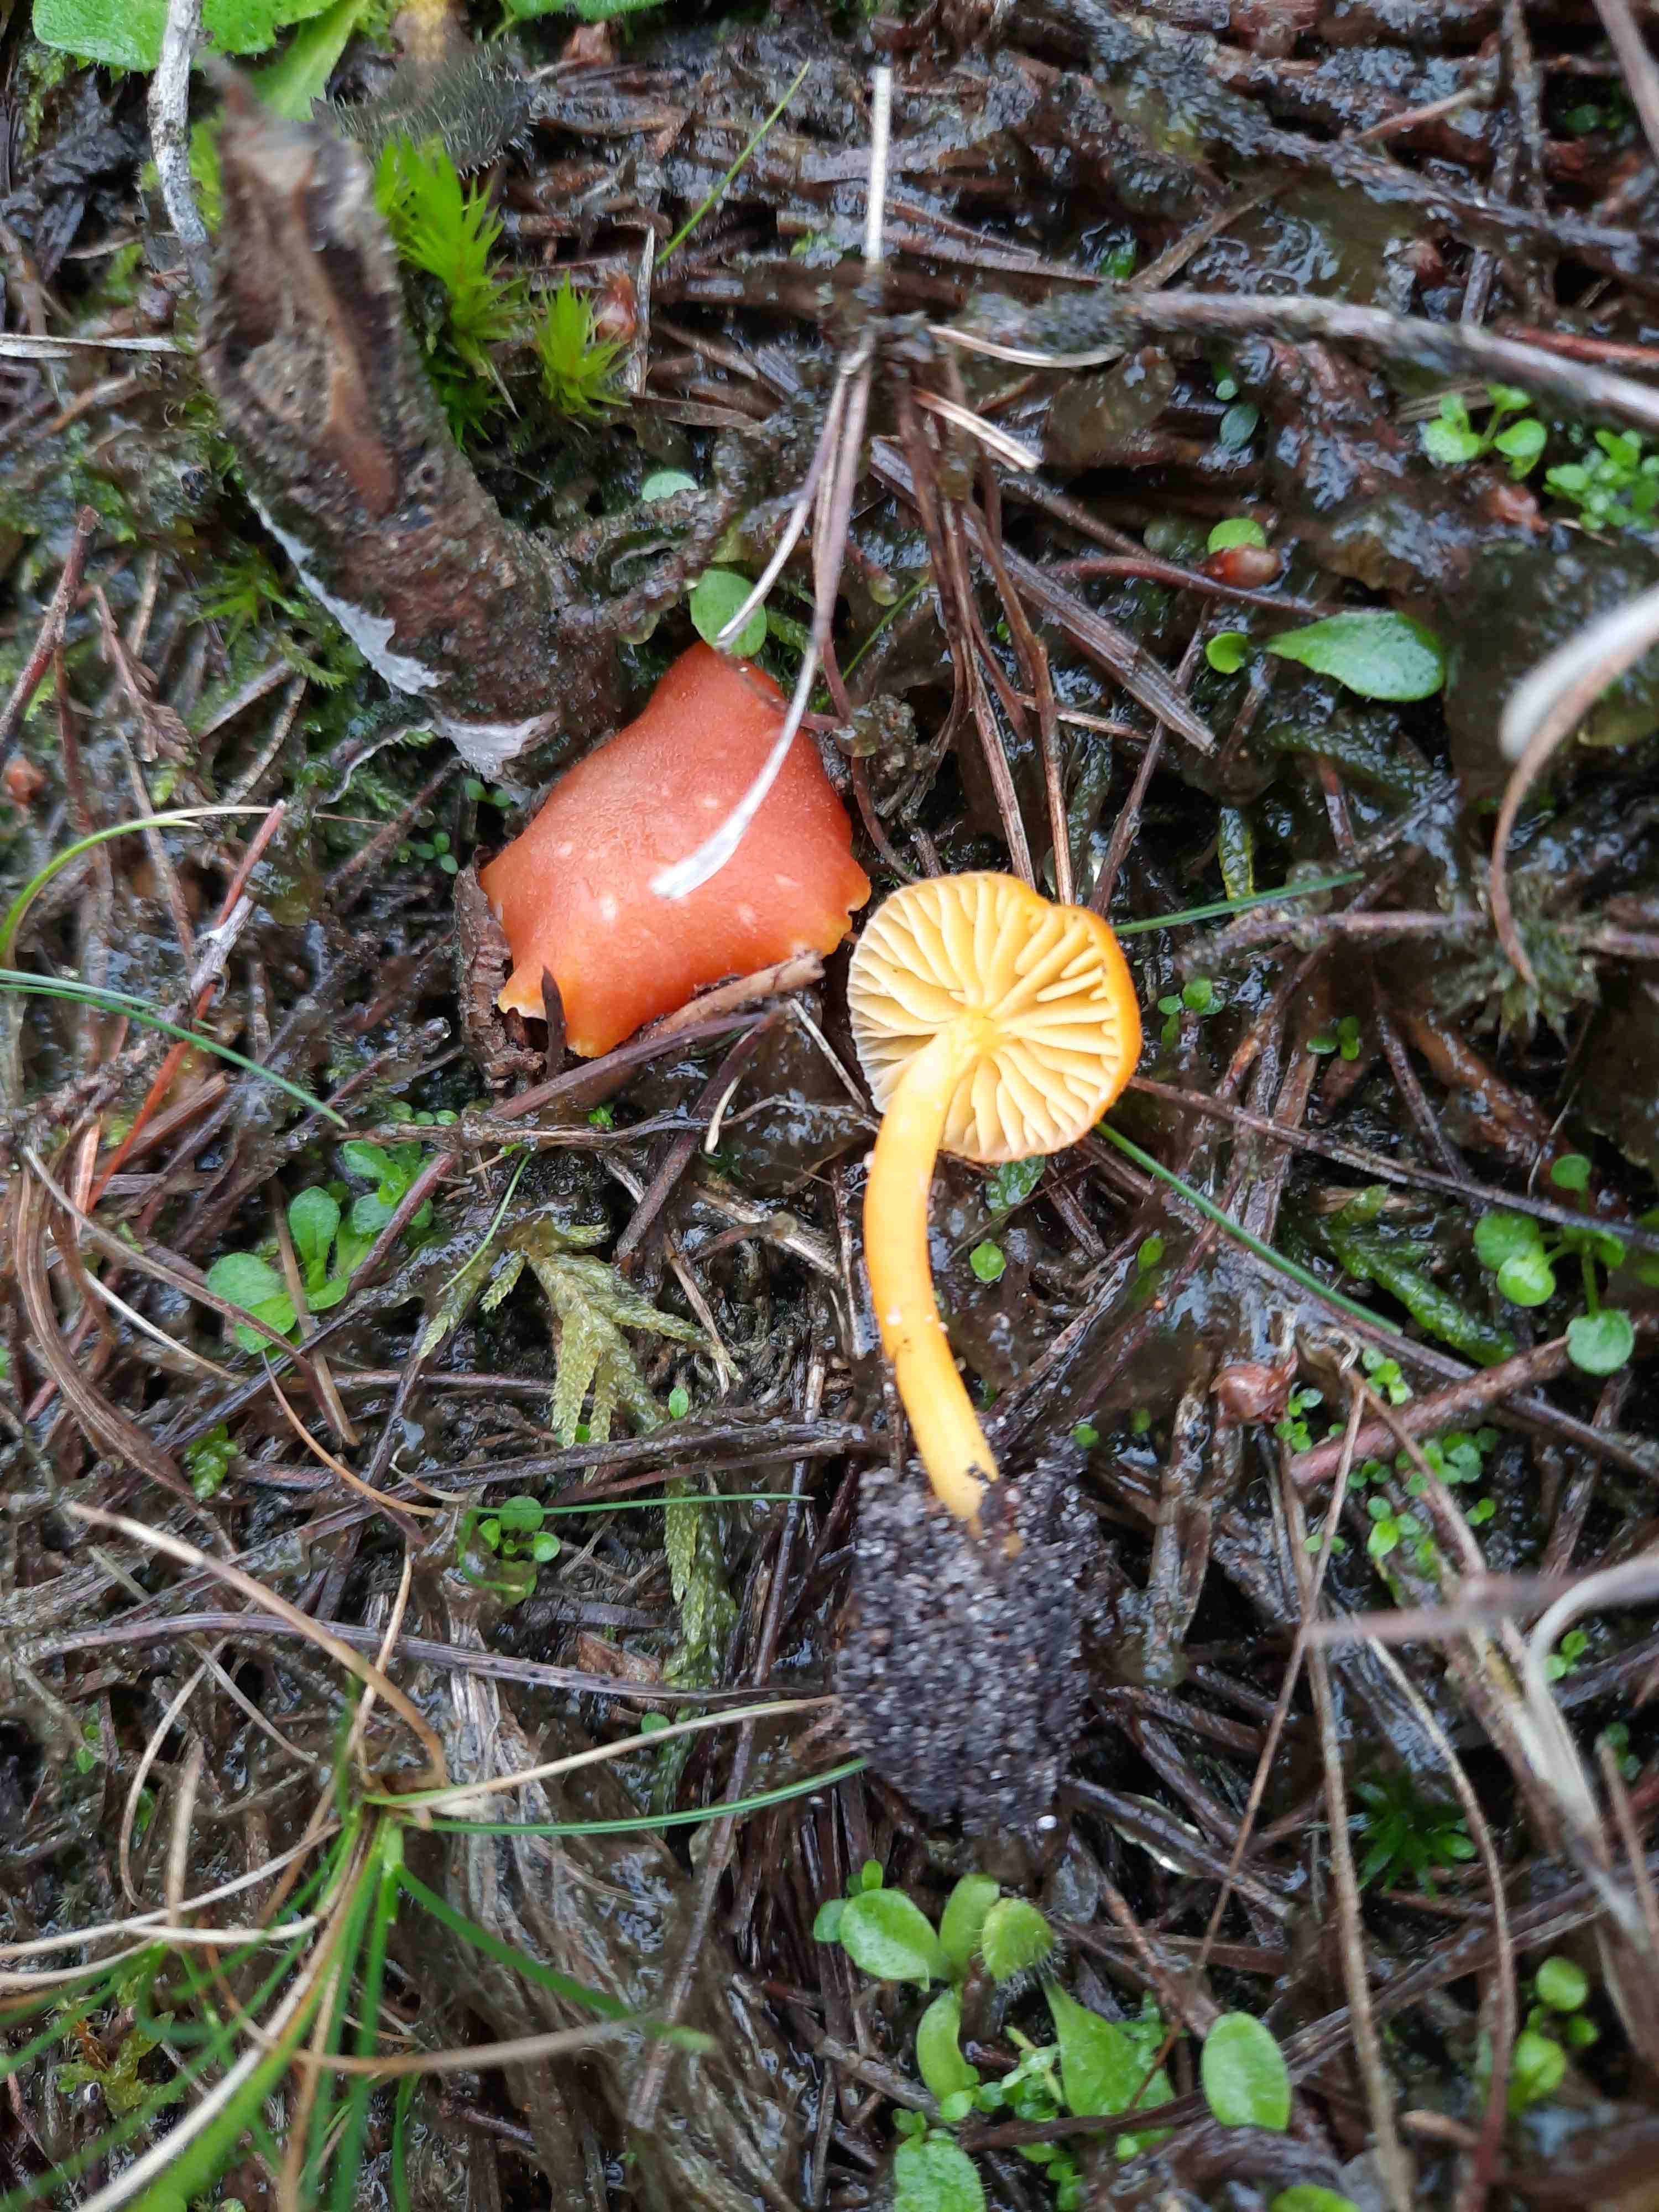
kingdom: Fungi
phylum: Basidiomycota
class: Agaricomycetes
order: Agaricales
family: Hygrophoraceae
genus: Hygrocybe
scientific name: Hygrocybe miniata
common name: mønje-vokshat
